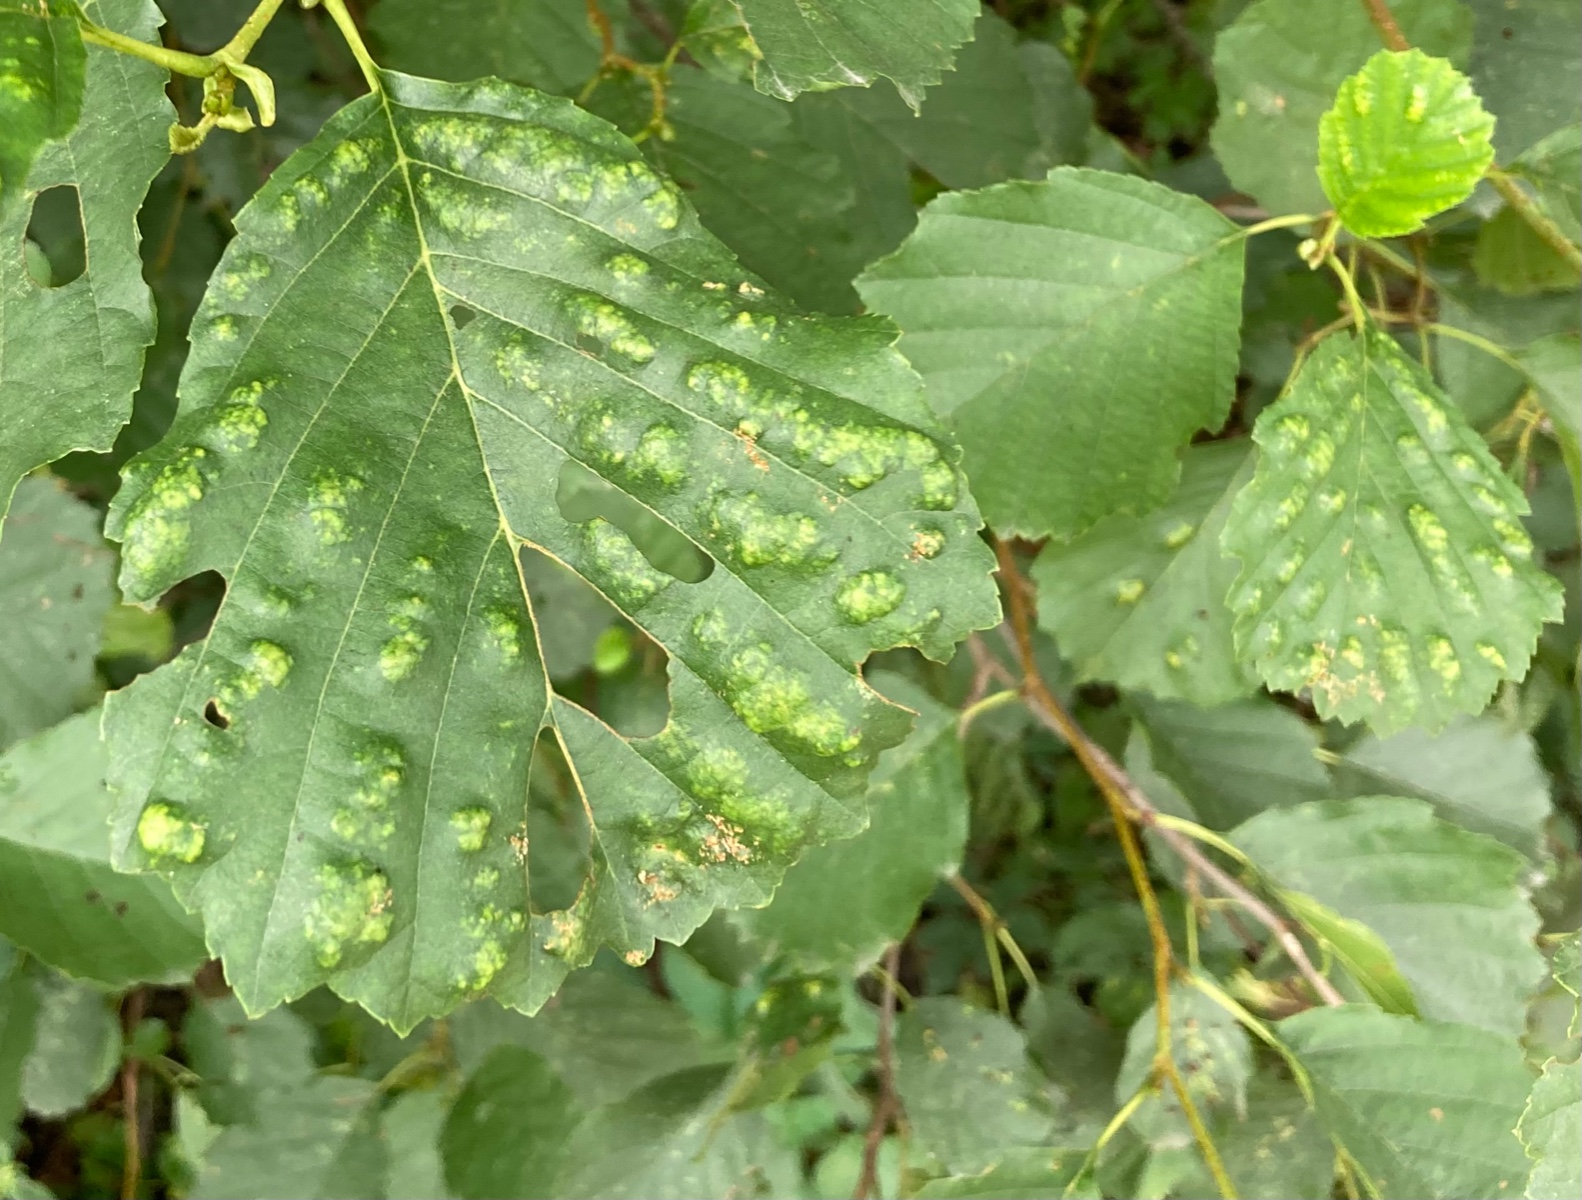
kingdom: Fungi
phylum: Ascomycota
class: Taphrinomycetes
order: Taphrinales
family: Taphrinaceae
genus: Taphrina
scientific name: Taphrina sadebeckii
